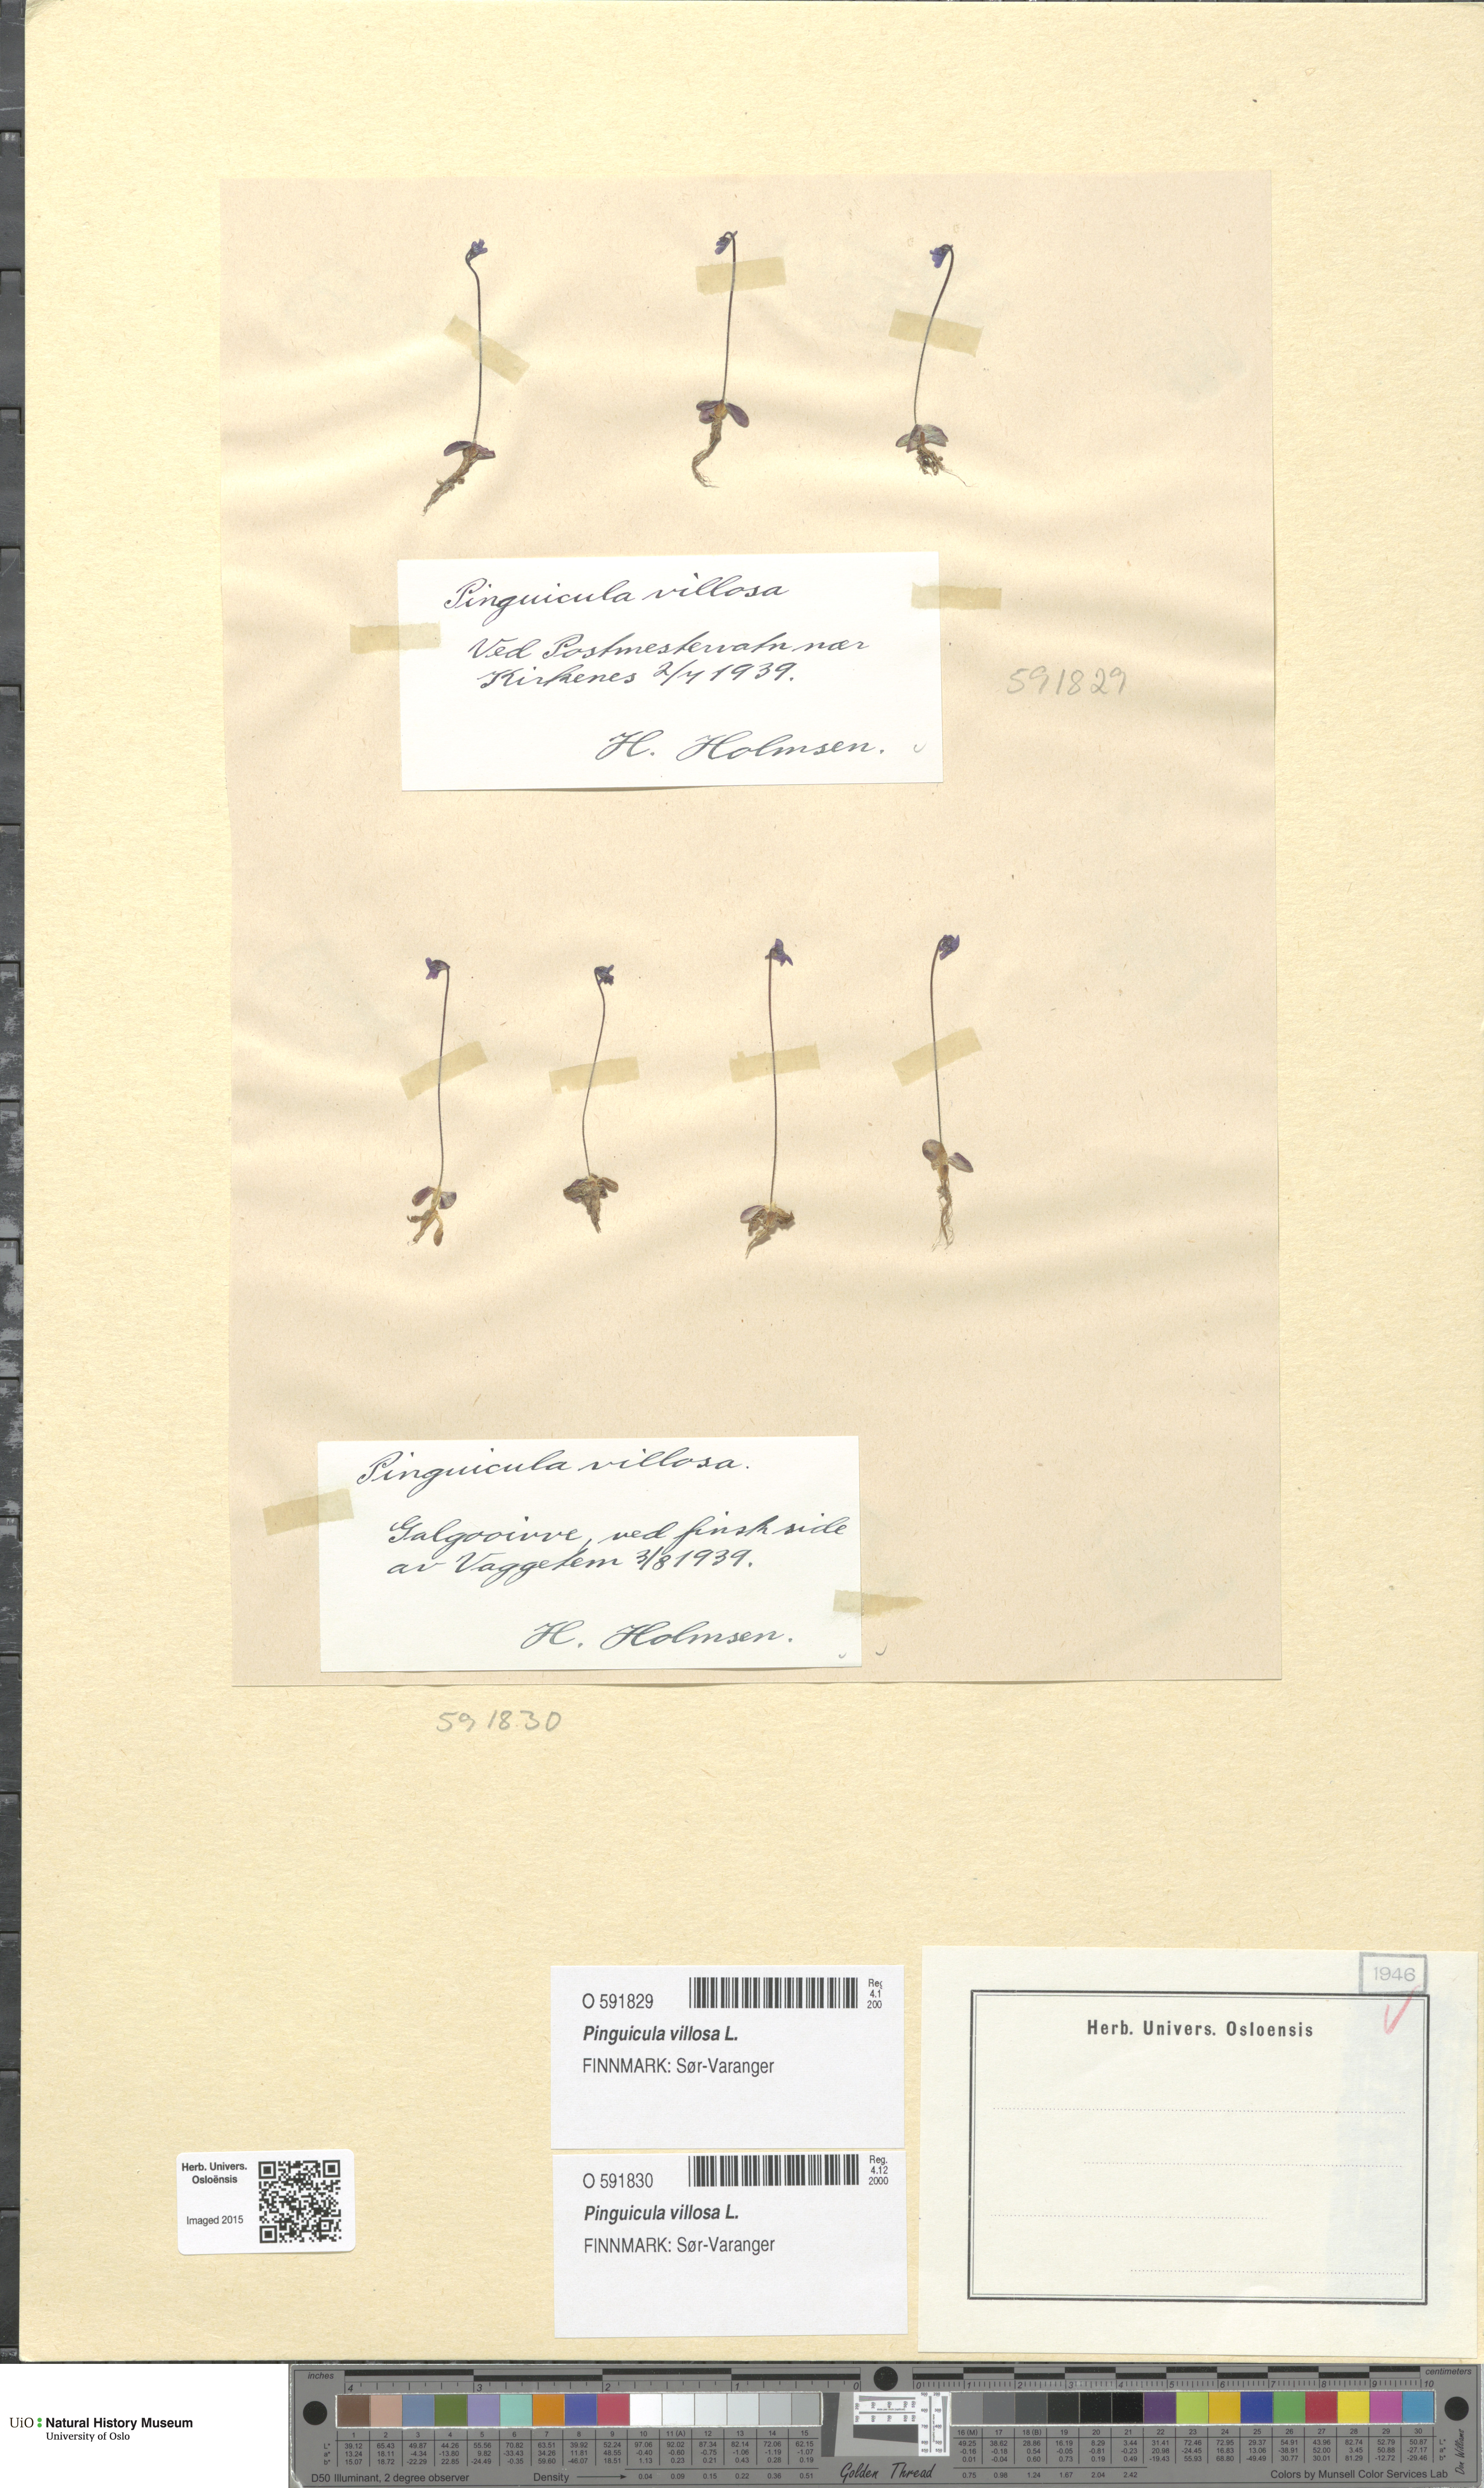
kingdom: Plantae
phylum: Tracheophyta
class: Magnoliopsida
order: Lamiales
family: Lentibulariaceae
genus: Pinguicula
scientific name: Pinguicula villosa
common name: Hairy butterwort
